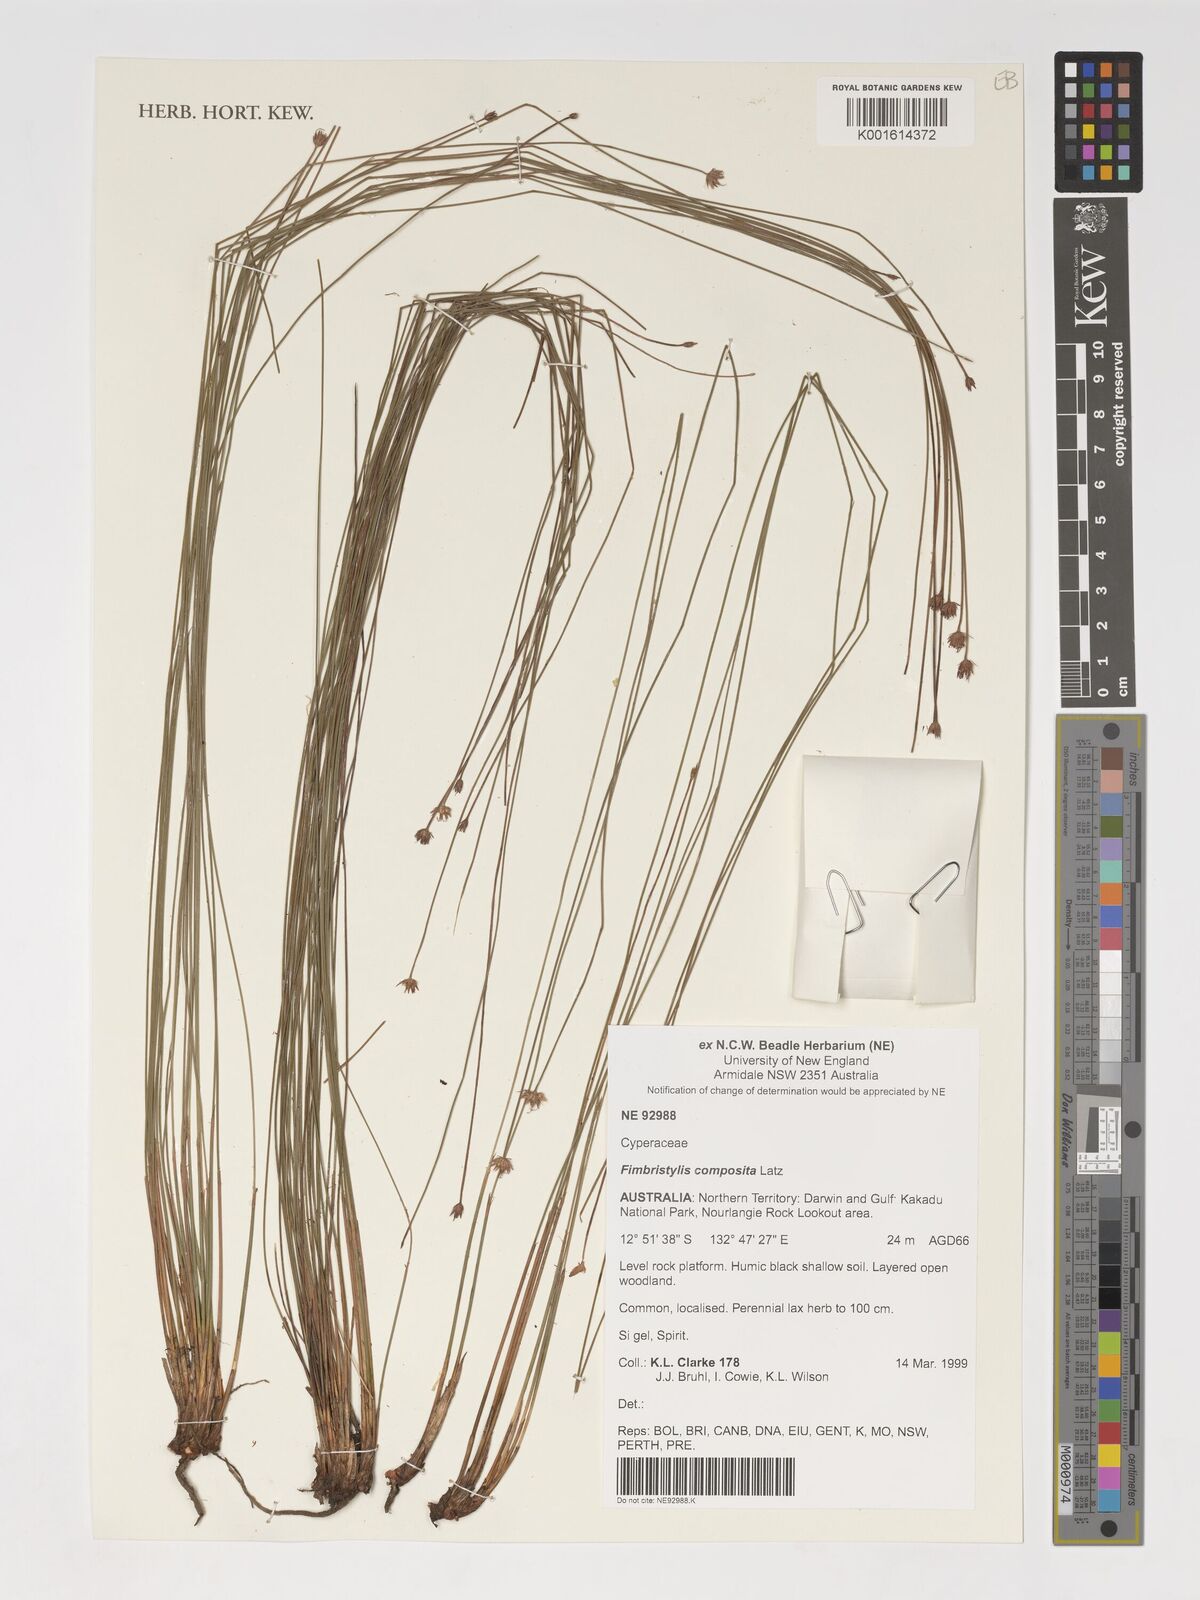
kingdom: Plantae
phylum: Tracheophyta
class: Liliopsida
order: Poales
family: Cyperaceae
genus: Scleroschoenus
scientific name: Scleroschoenus compositus
